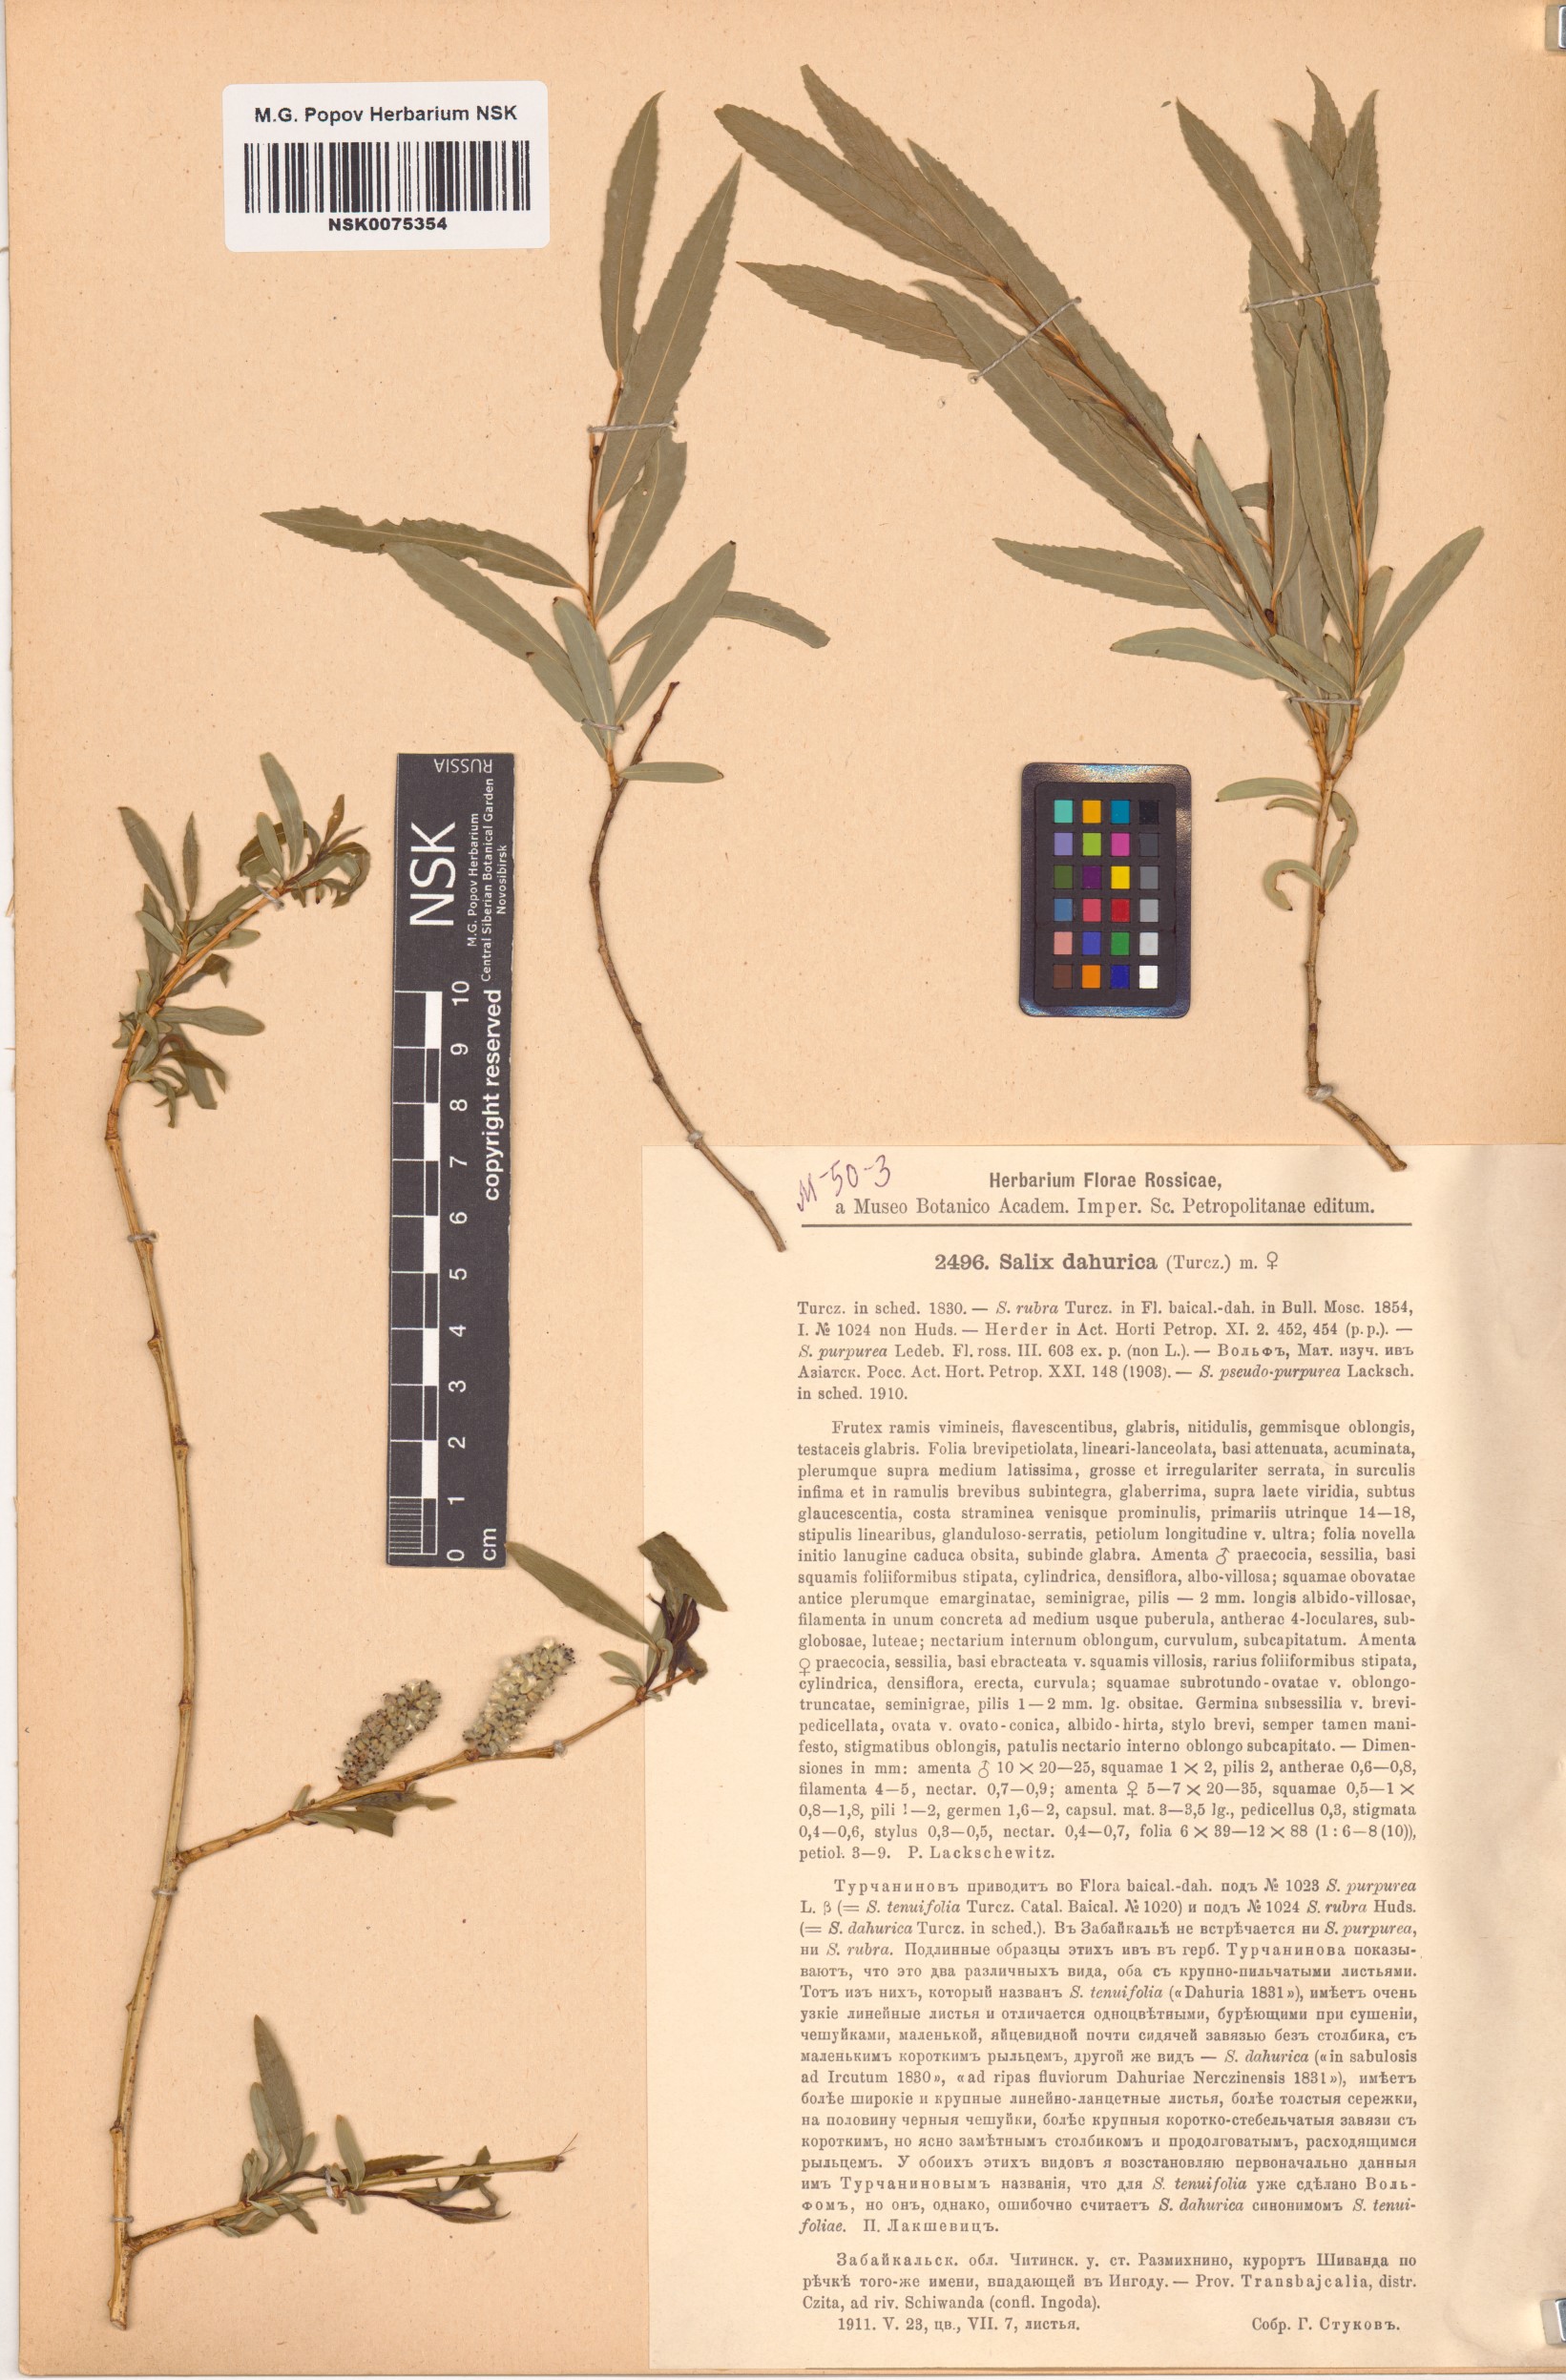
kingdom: Plantae
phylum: Tracheophyta
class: Magnoliopsida
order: Malpighiales
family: Salicaceae
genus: Salix
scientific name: Salix
